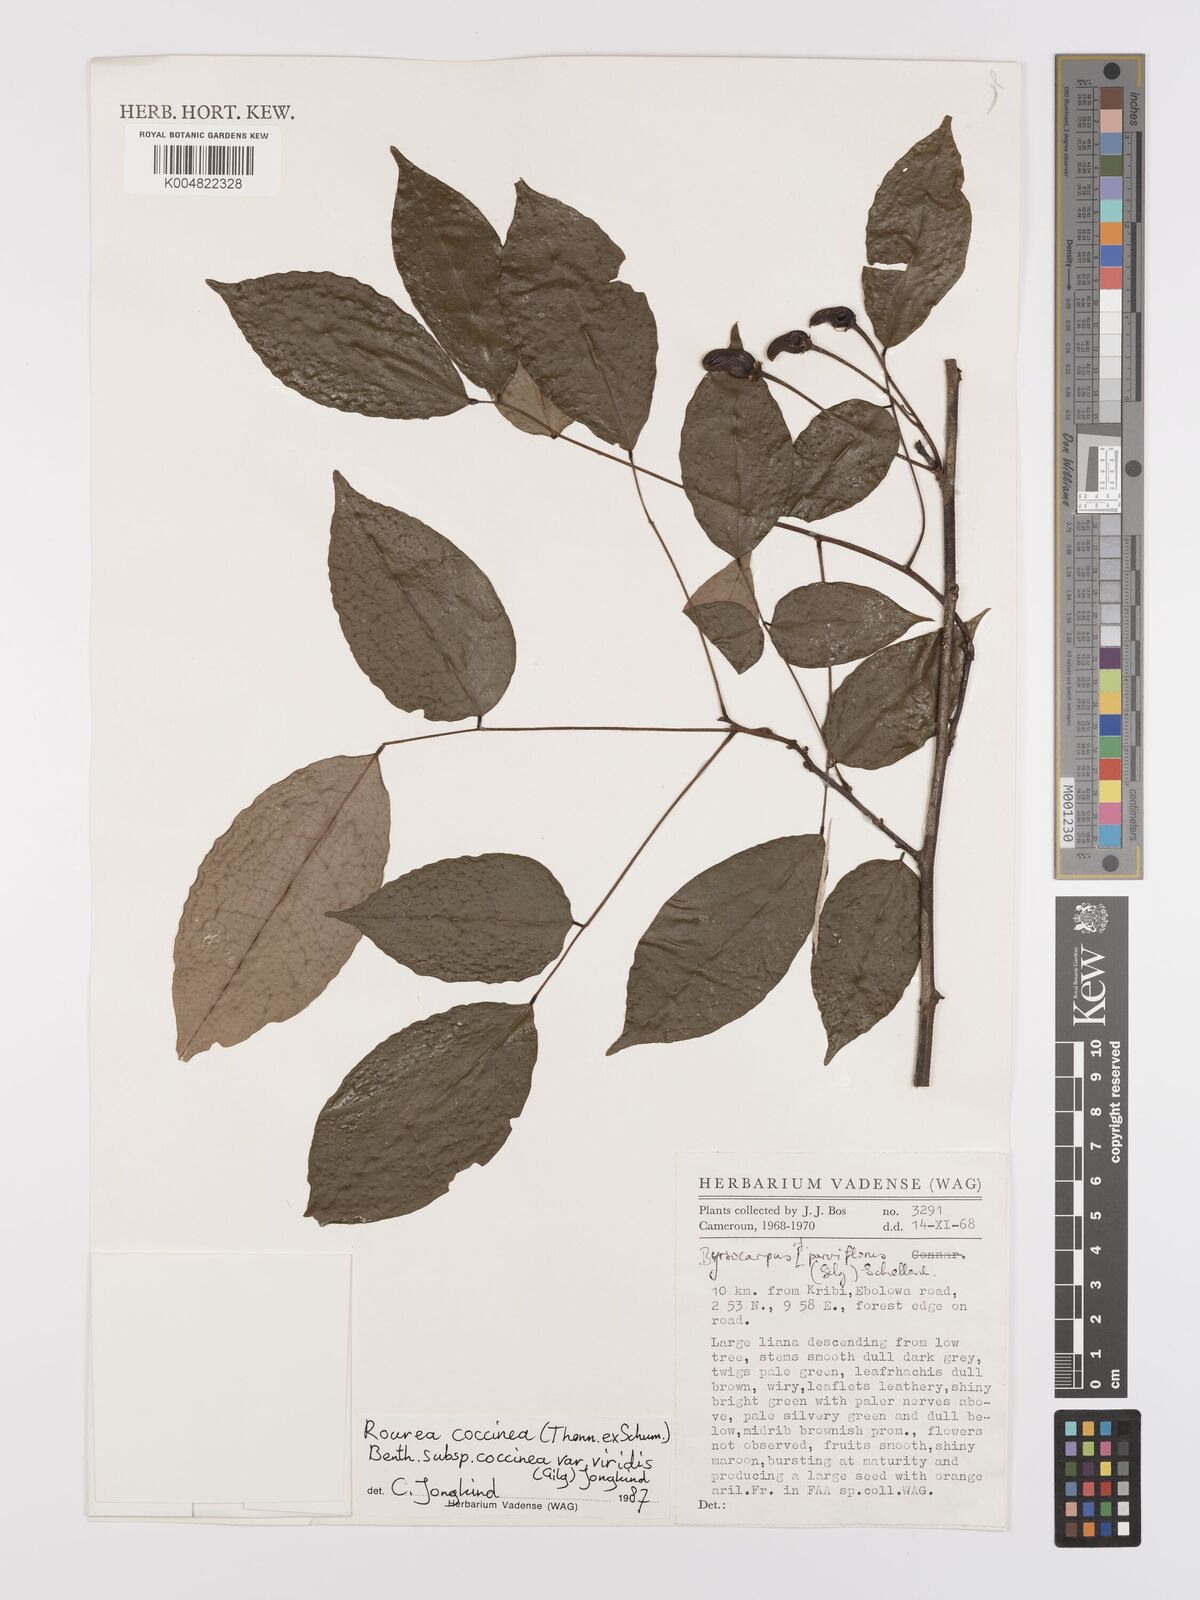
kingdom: Plantae
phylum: Tracheophyta
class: Magnoliopsida
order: Oxalidales
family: Connaraceae
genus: Rourea
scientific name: Rourea
